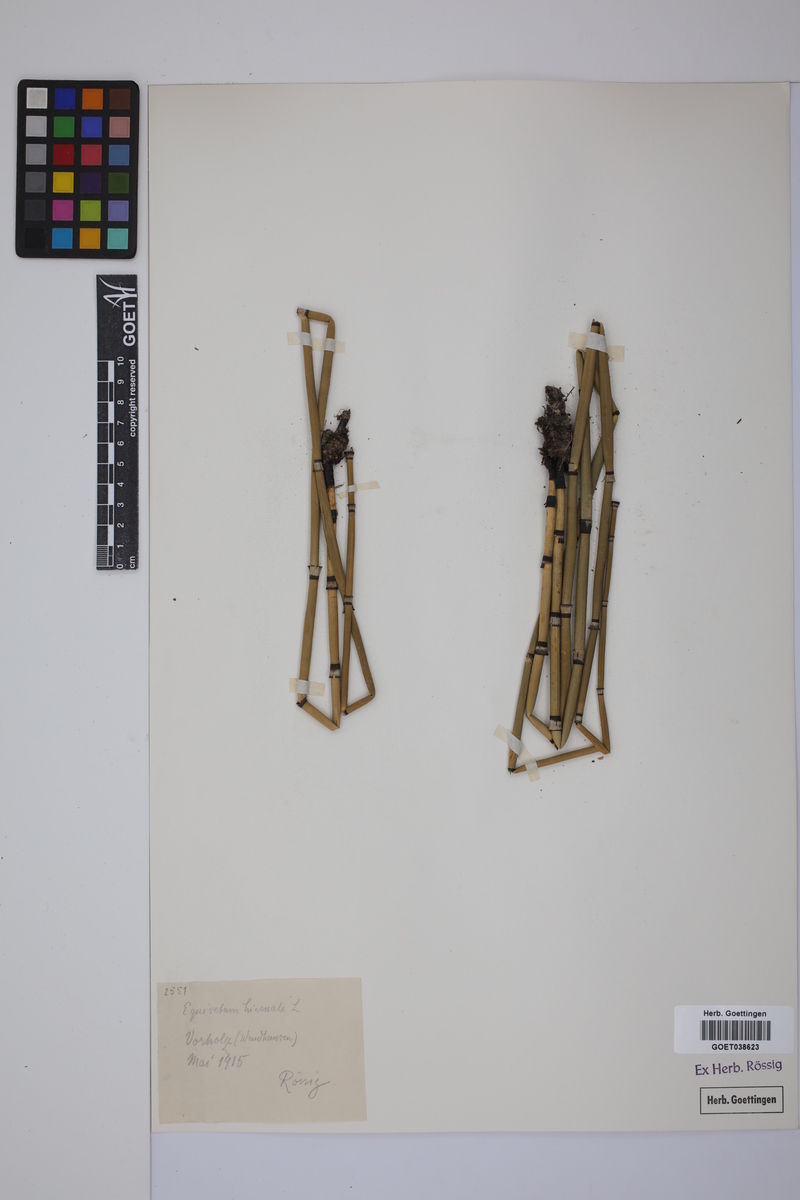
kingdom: Plantae
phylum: Tracheophyta
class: Polypodiopsida
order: Equisetales
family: Equisetaceae
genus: Equisetum
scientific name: Equisetum hyemale
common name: Rough horsetail
